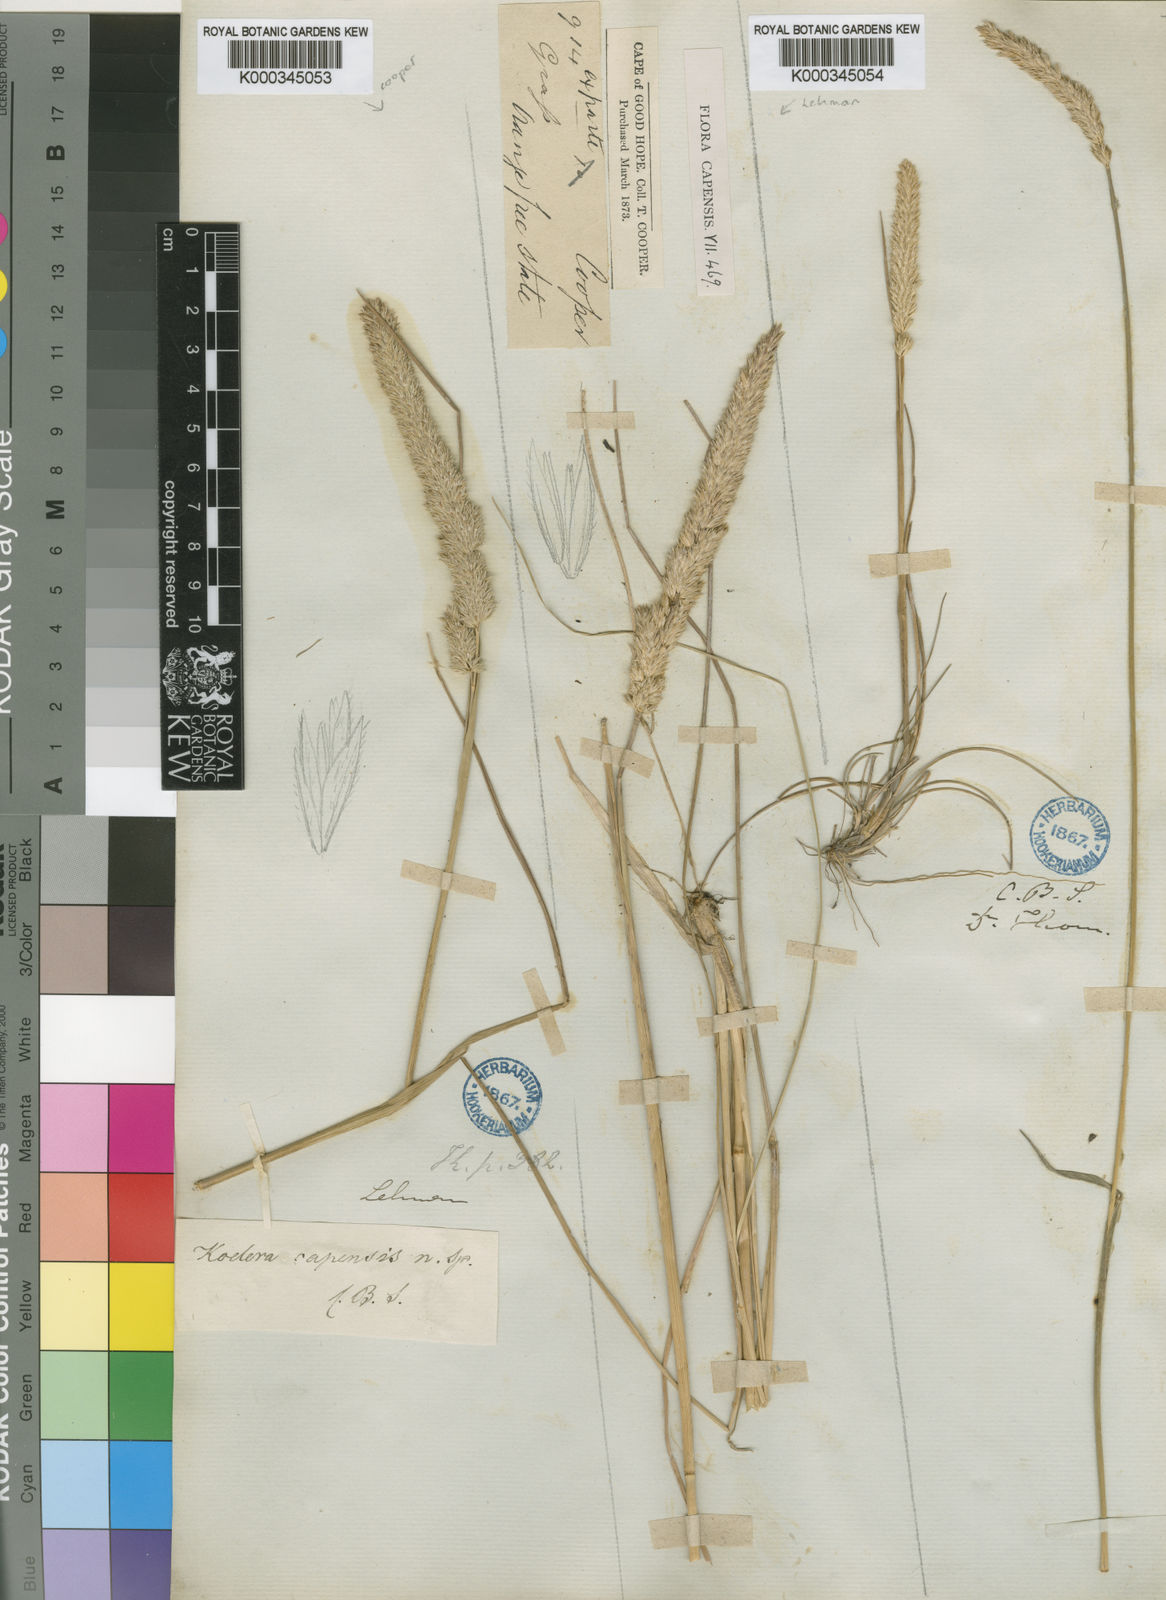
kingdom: Plantae
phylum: Tracheophyta
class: Liliopsida
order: Poales
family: Poaceae
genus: Koeleria
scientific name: Koeleria capensis
